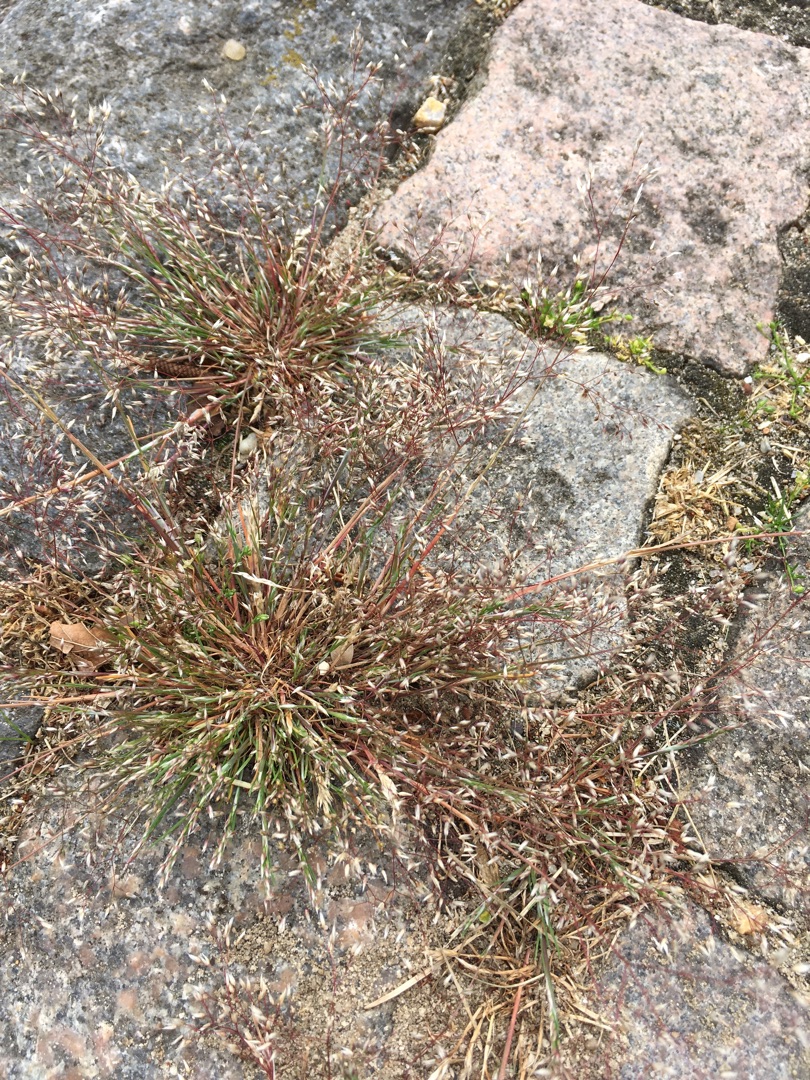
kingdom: Plantae
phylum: Tracheophyta
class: Liliopsida
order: Poales
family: Poaceae
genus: Aira
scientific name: Aira caryophyllea
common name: Udspærret dværgbunke
